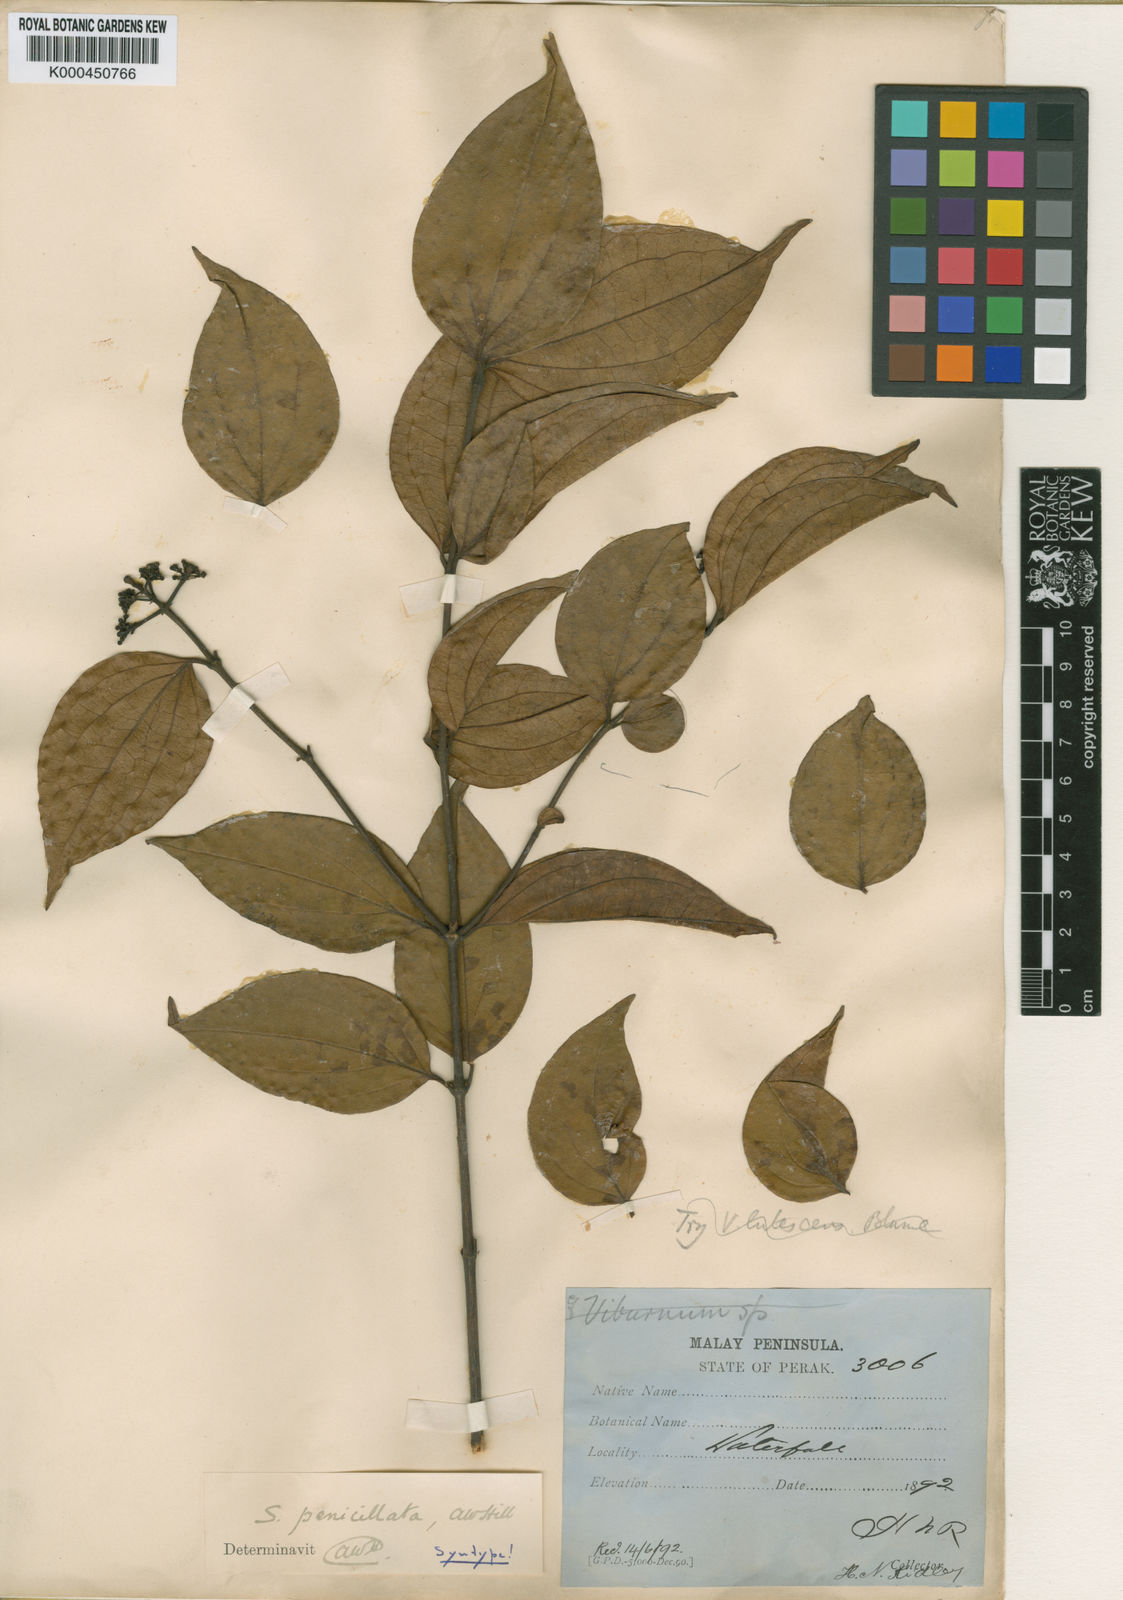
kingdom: Plantae
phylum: Tracheophyta
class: Magnoliopsida
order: Gentianales
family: Loganiaceae
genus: Strychnos
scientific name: Strychnos axillaris
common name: Strychninebush
